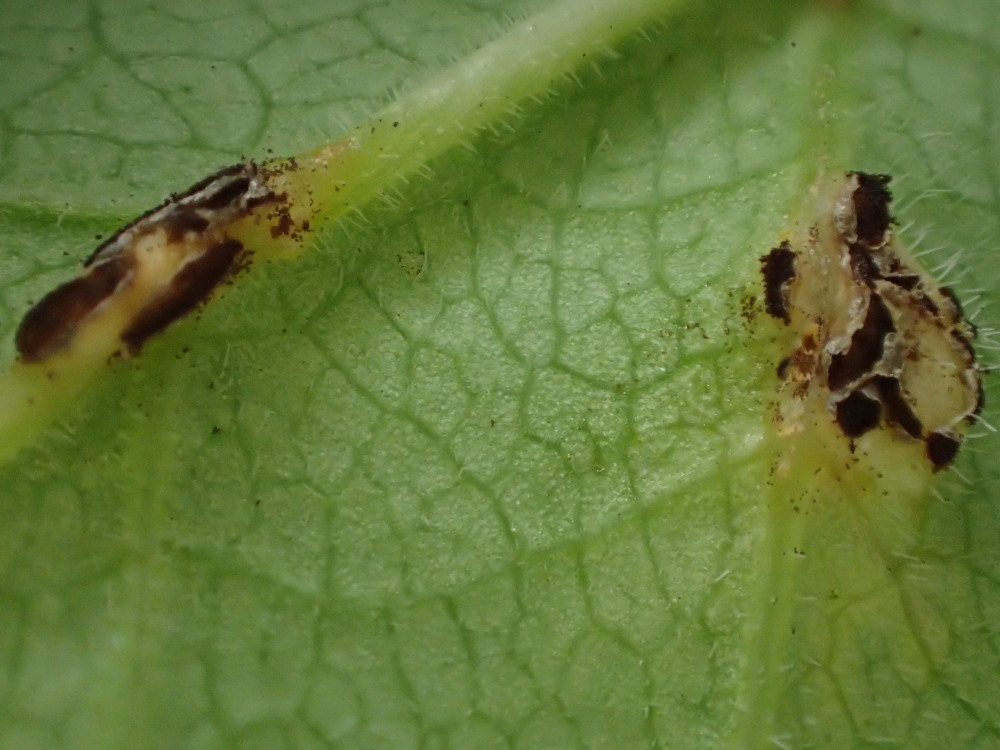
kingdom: Fungi
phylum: Basidiomycota
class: Pucciniomycetes
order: Pucciniales
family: Pucciniaceae
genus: Puccinia
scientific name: Puccinia
